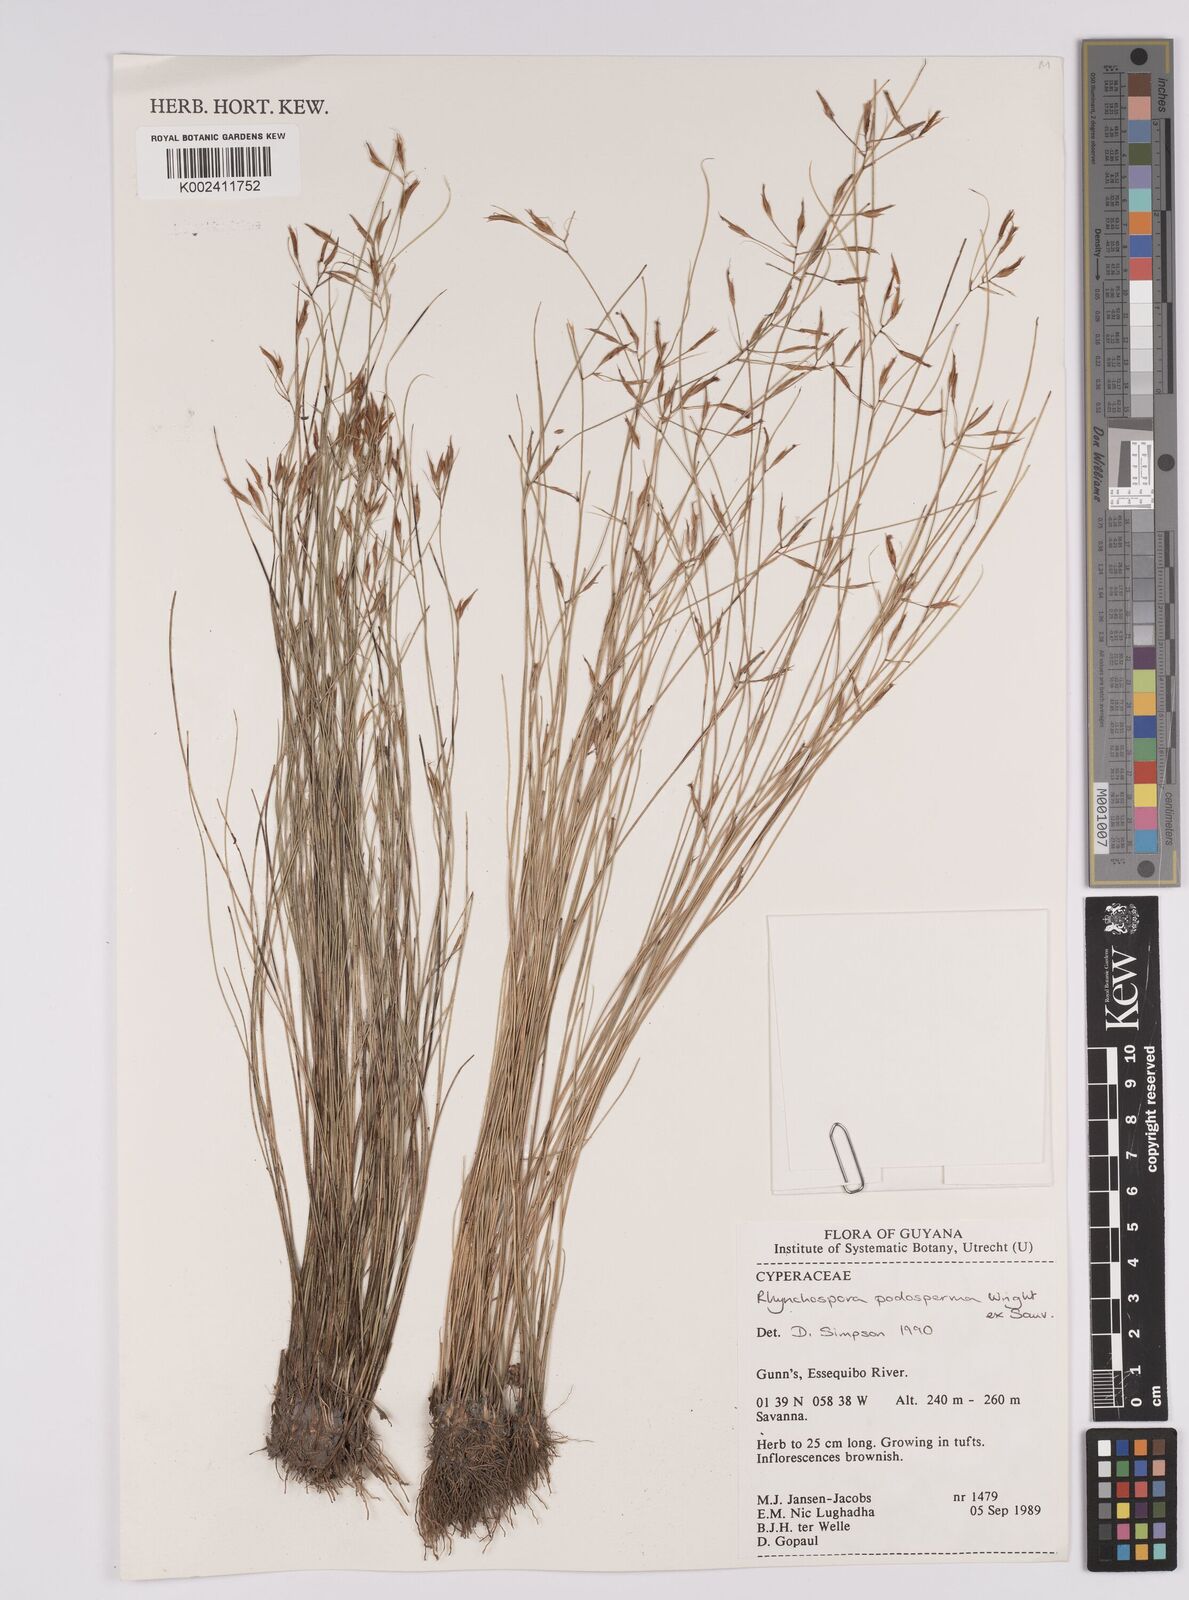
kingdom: Plantae
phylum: Tracheophyta
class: Liliopsida
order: Poales
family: Cyperaceae
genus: Rhynchospora
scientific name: Rhynchospora filiformis
